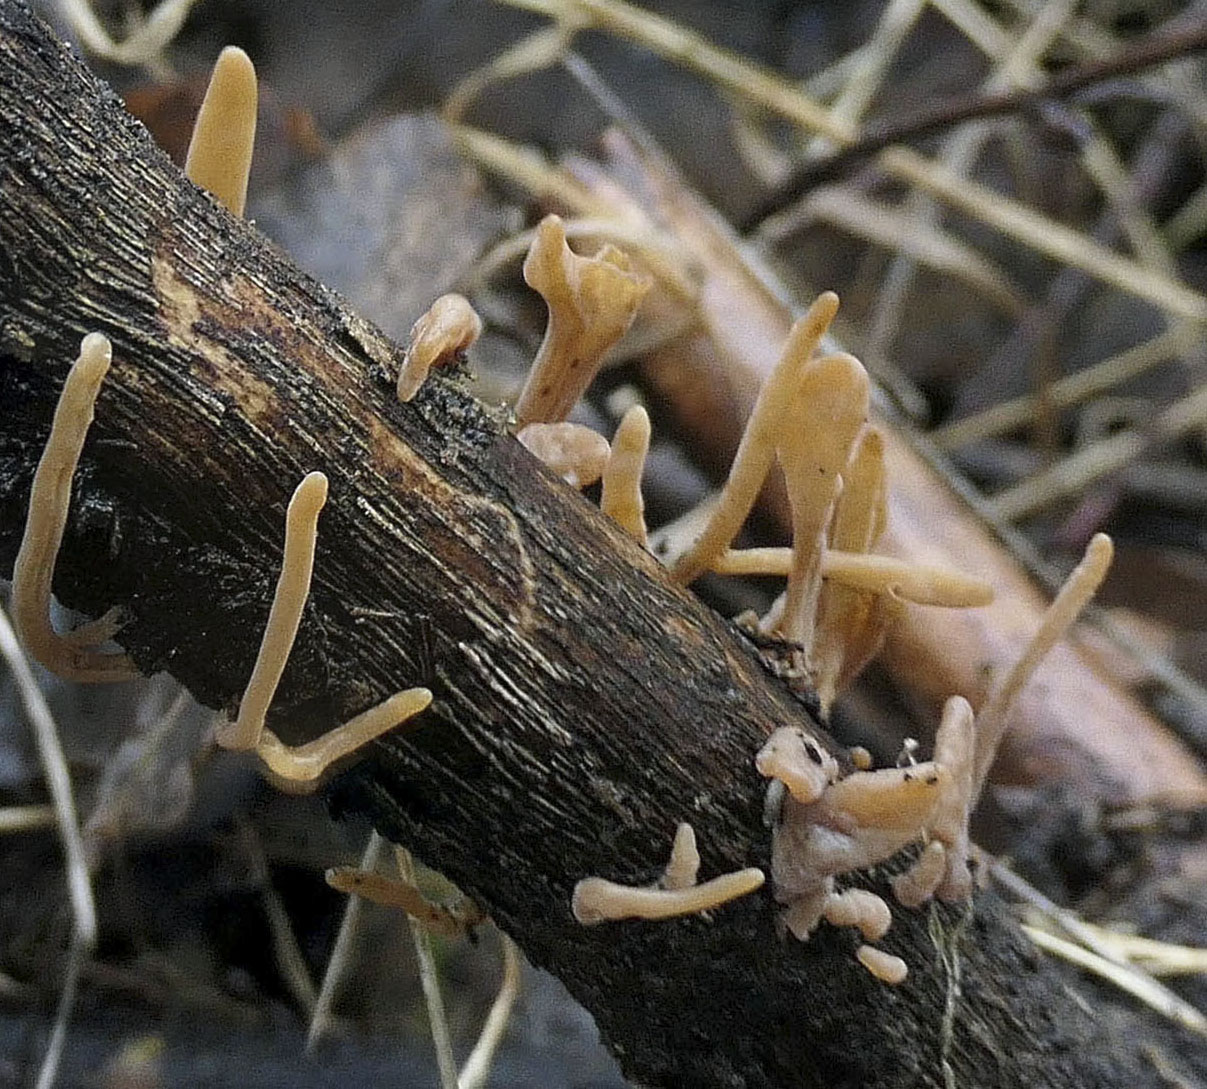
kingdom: Fungi
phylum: Basidiomycota
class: Agaricomycetes
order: Agaricales
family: Typhulaceae
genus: Typhula
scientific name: Typhula contorta
